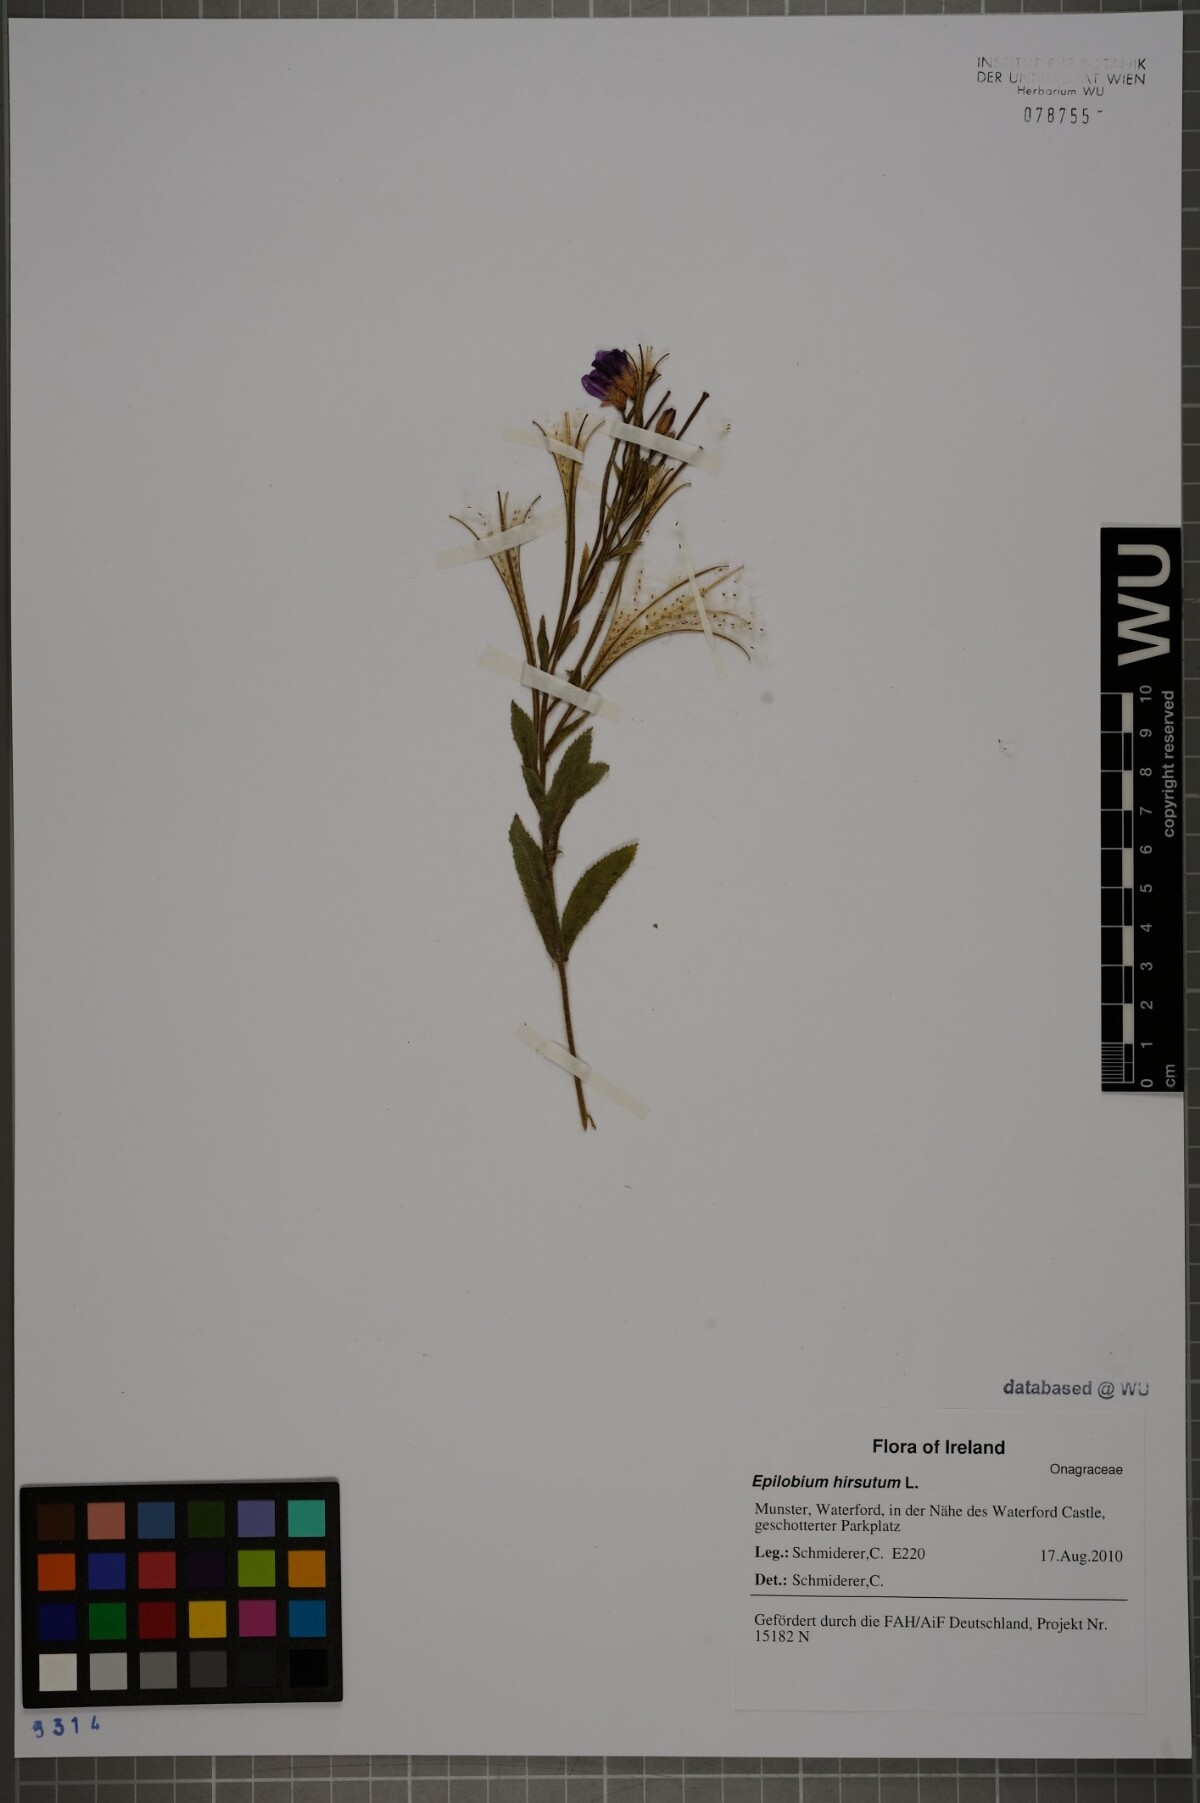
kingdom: Plantae
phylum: Tracheophyta
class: Magnoliopsida
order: Myrtales
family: Onagraceae
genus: Epilobium
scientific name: Epilobium hirsutum
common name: Great willowherb
